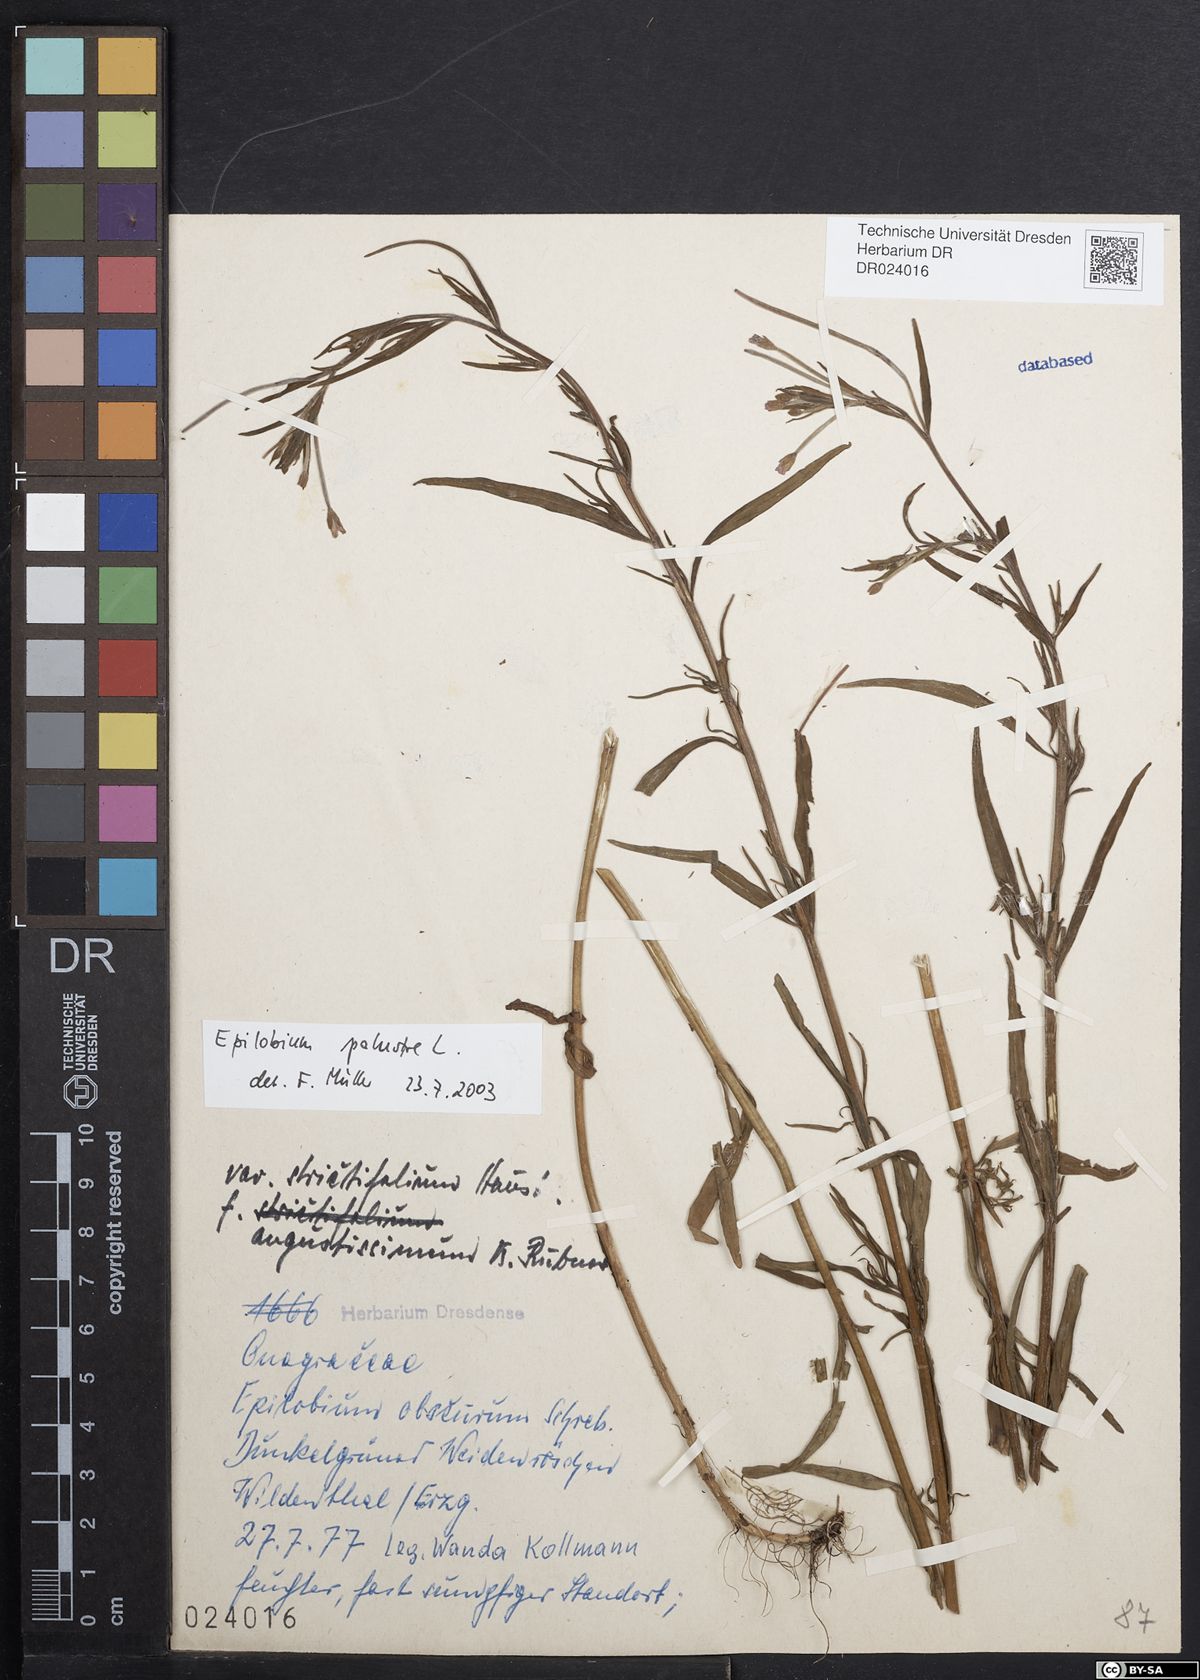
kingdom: Plantae
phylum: Tracheophyta
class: Magnoliopsida
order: Myrtales
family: Onagraceae
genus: Epilobium
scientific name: Epilobium palustre
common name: Marsh willowherb
